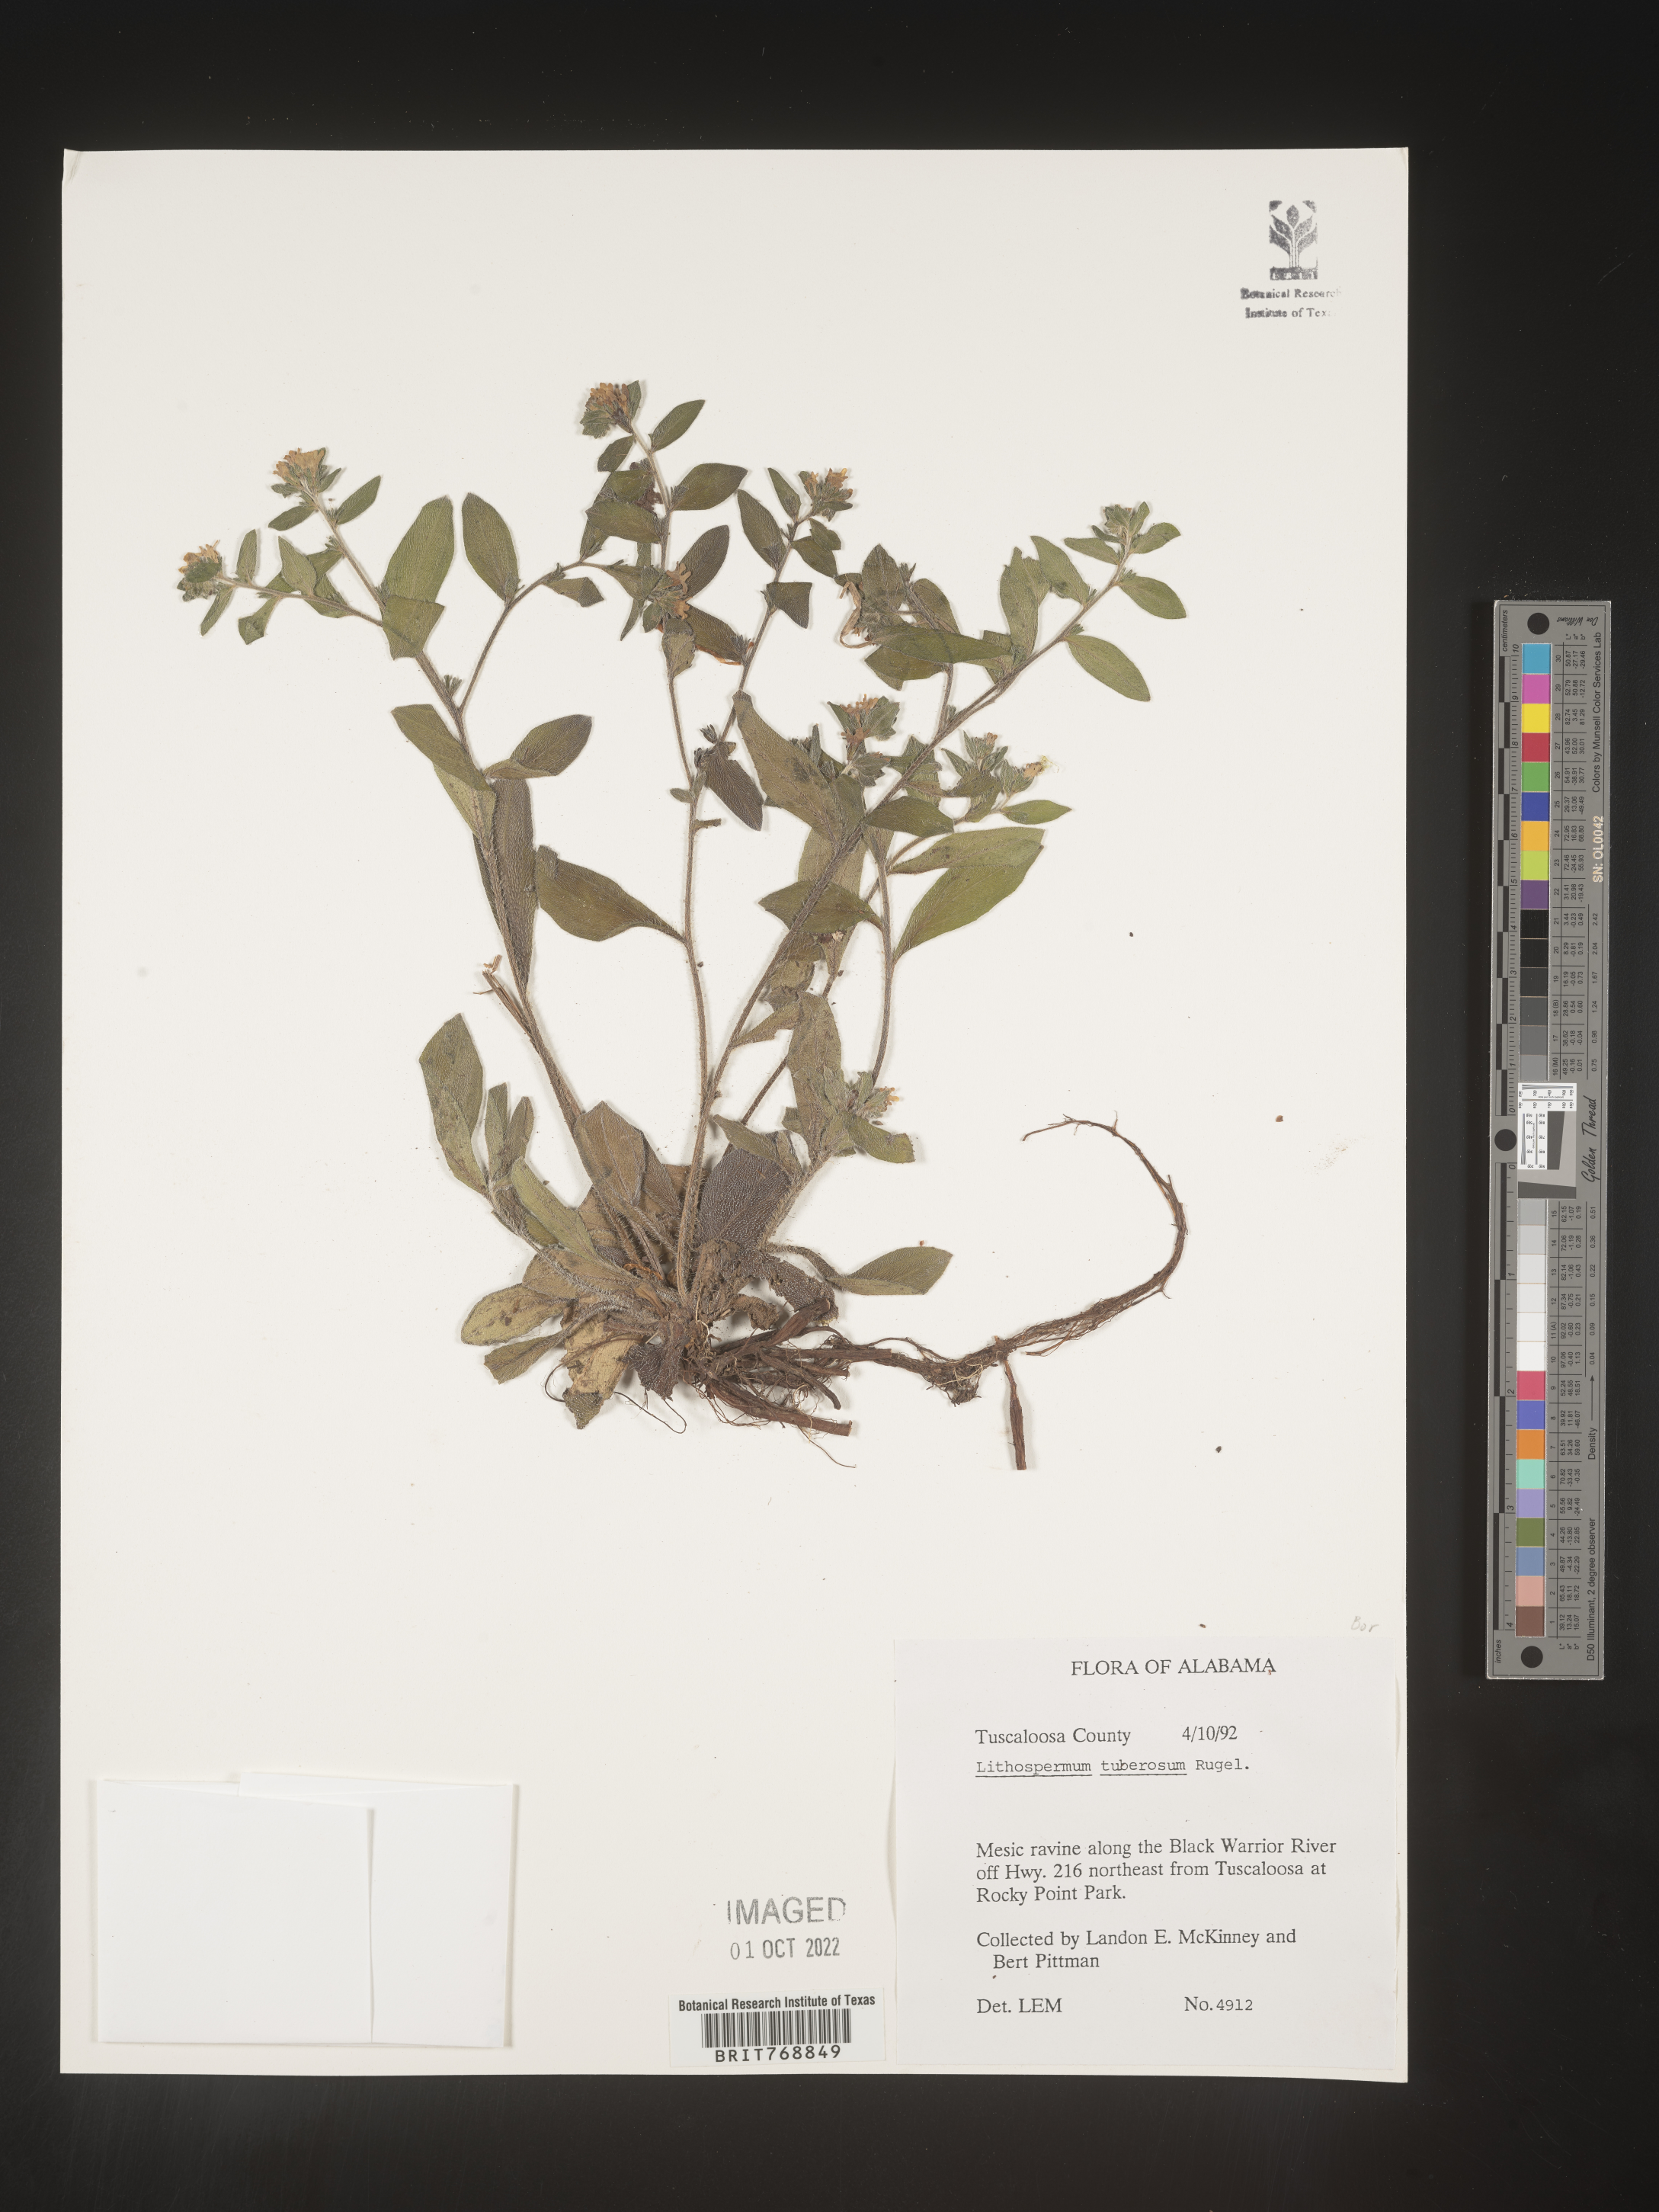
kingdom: Plantae
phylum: Tracheophyta
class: Magnoliopsida
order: Boraginales
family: Boraginaceae
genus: Lithospermum
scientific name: Lithospermum
